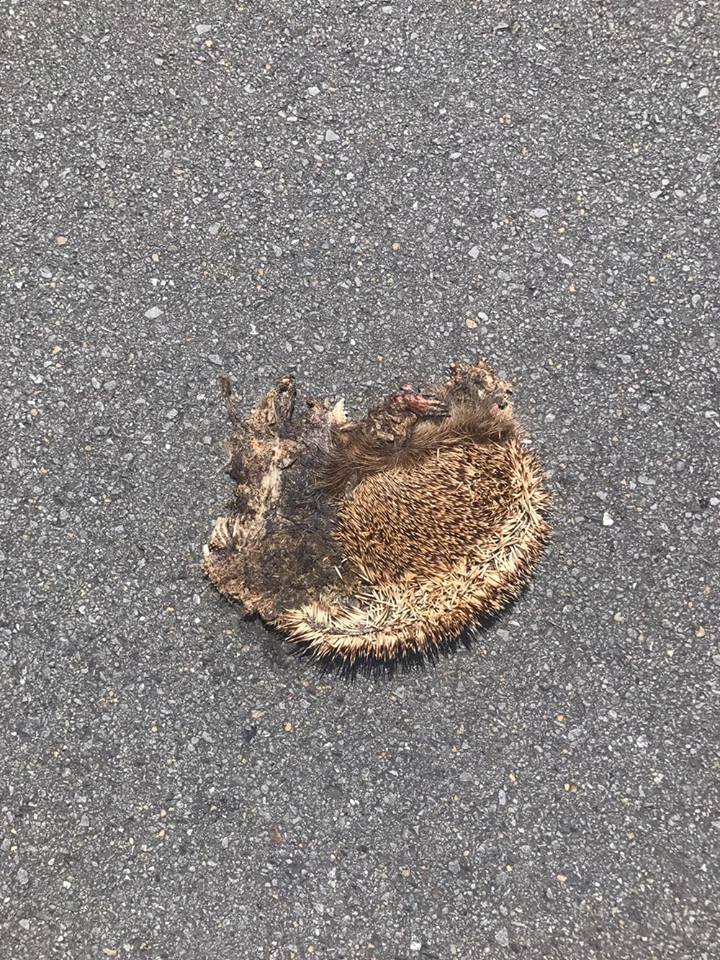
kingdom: Animalia
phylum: Chordata
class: Mammalia
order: Erinaceomorpha
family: Erinaceidae
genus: Erinaceus
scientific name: Erinaceus
